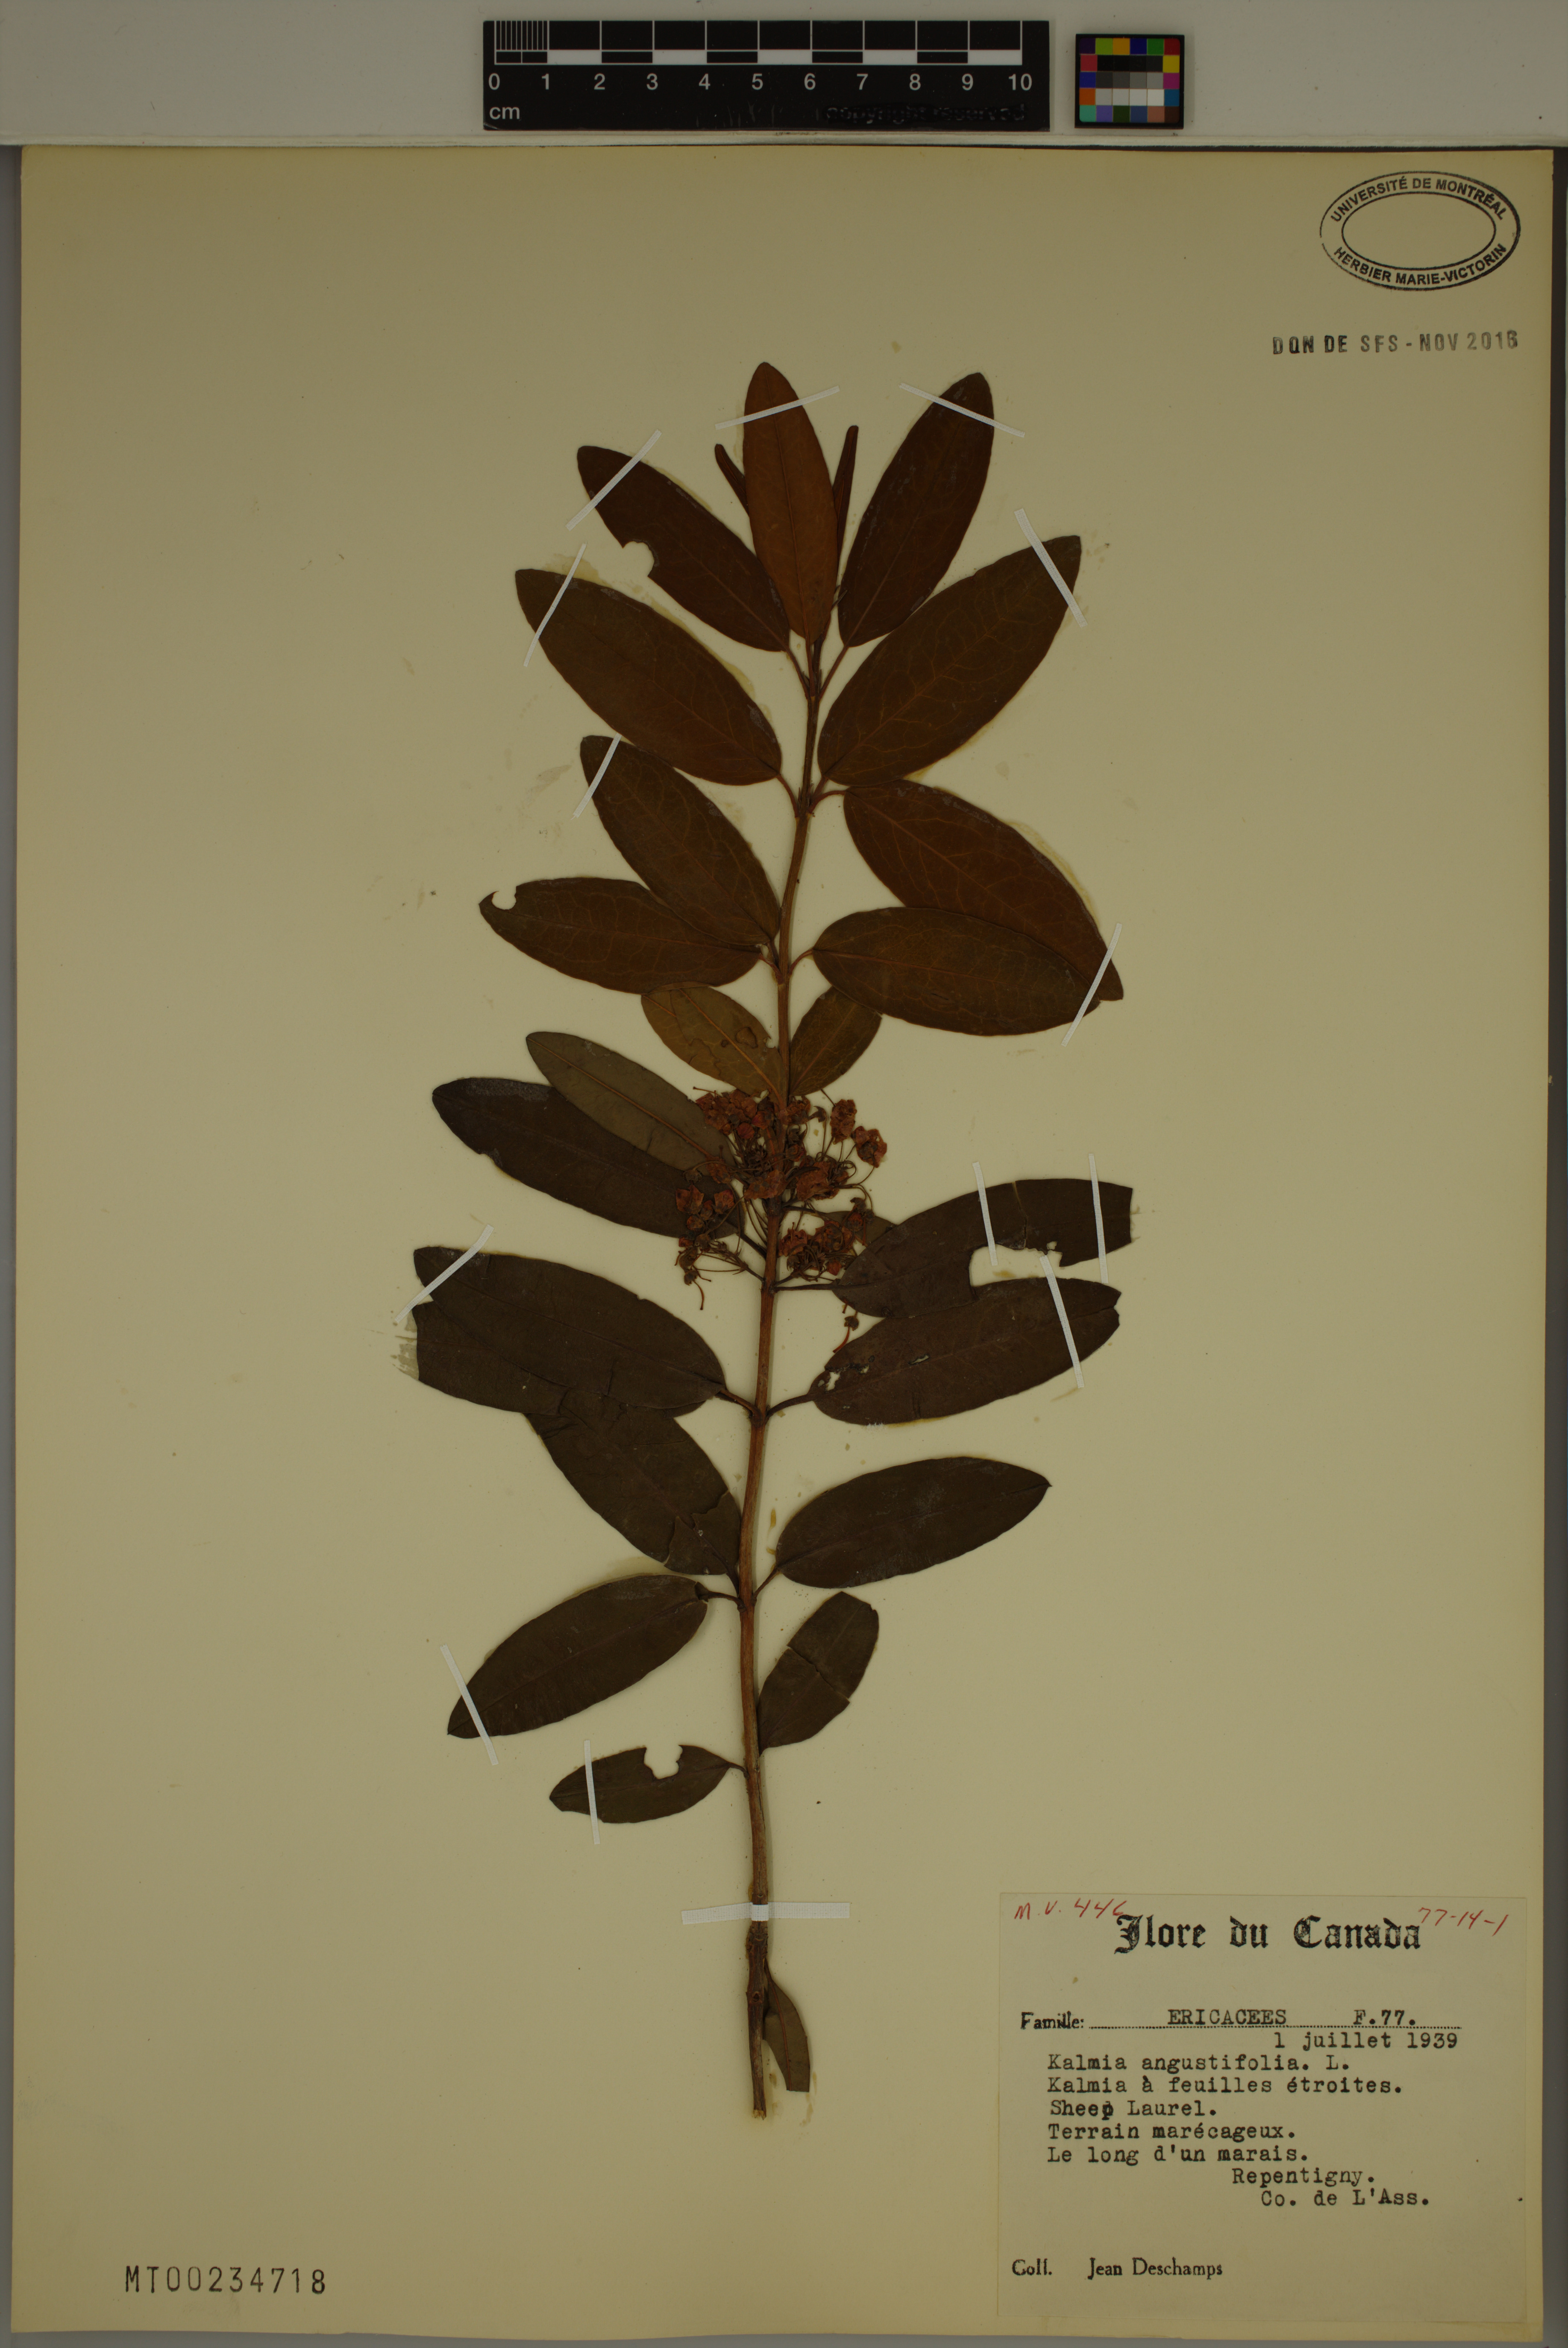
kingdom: Plantae
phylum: Tracheophyta
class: Magnoliopsida
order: Ericales
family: Ericaceae
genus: Kalmia
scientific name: Kalmia angustifolia
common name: Sheep-laurel
